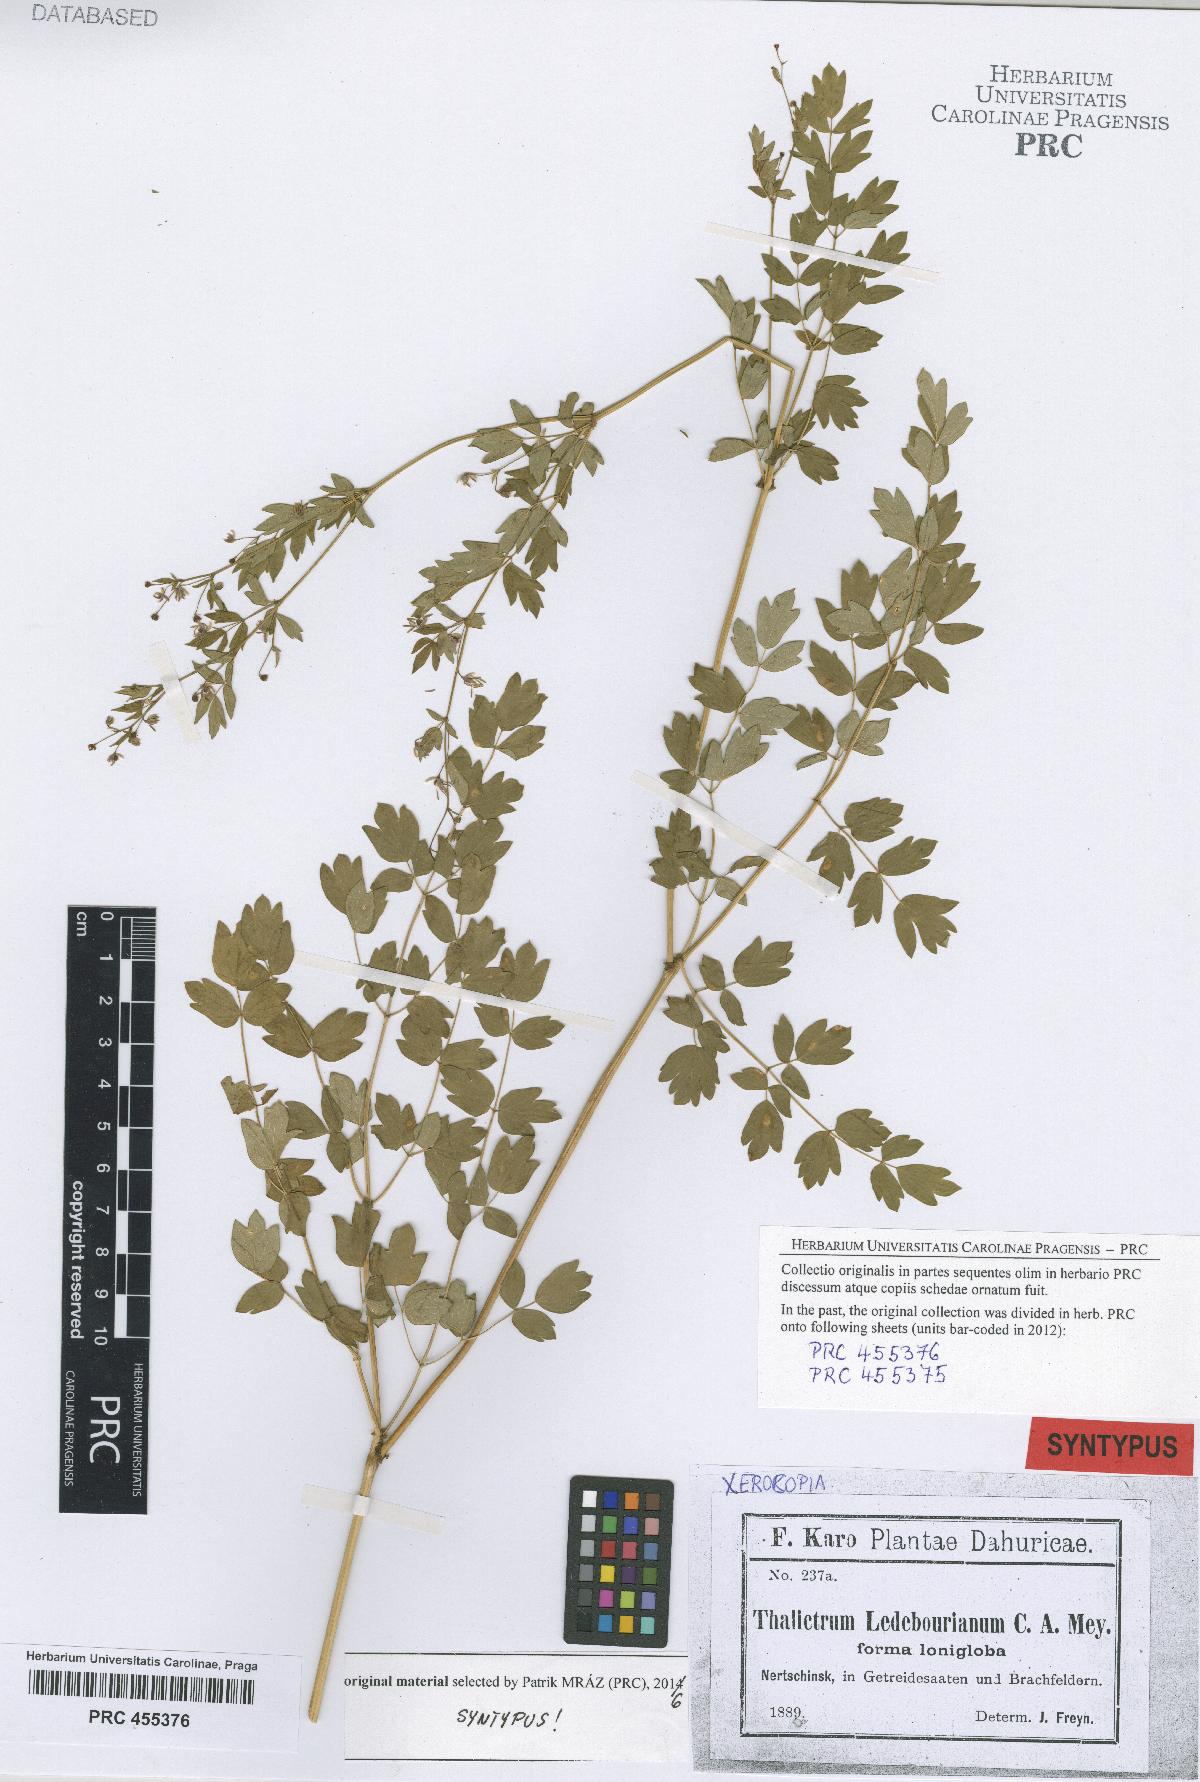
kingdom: Plantae
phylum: Tracheophyta
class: Magnoliopsida
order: Ranunculales
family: Ranunculaceae
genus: Thalictrum
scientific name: Thalictrum squarrosum
